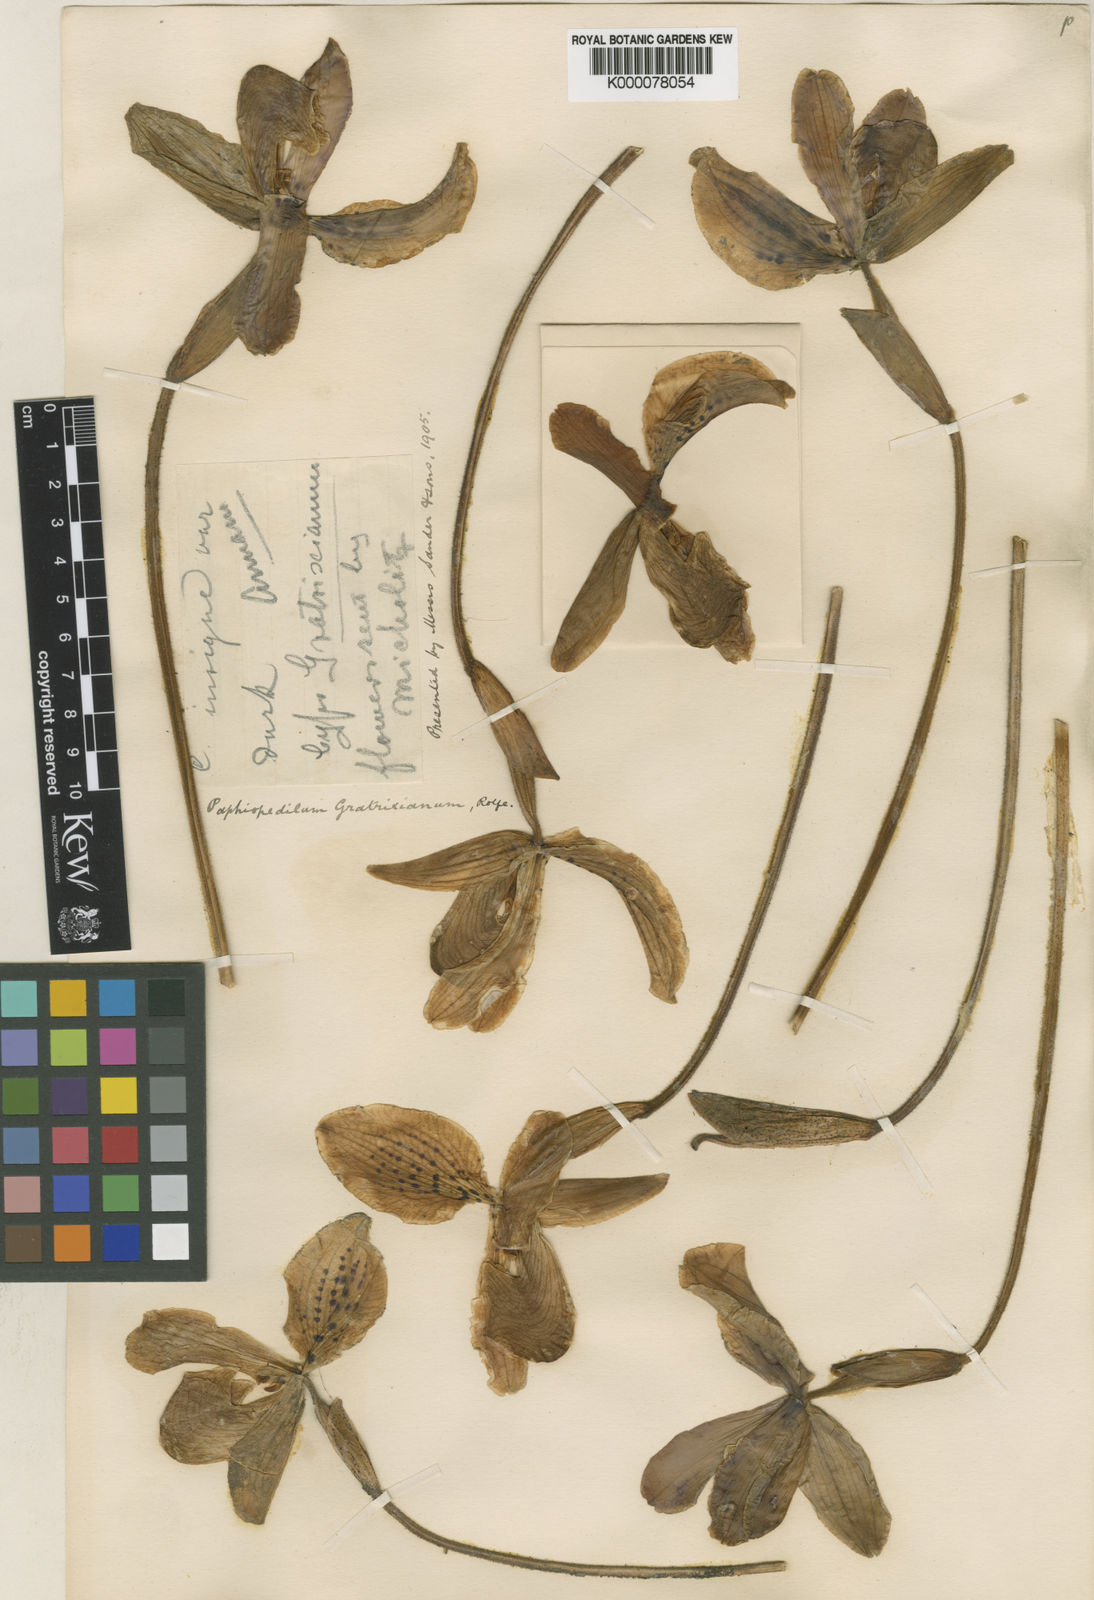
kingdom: Plantae
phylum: Tracheophyta
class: Liliopsida
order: Asparagales
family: Orchidaceae
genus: Paphiopedilum
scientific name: Paphiopedilum gratrixianum
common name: Gratix's paphiopedilum
